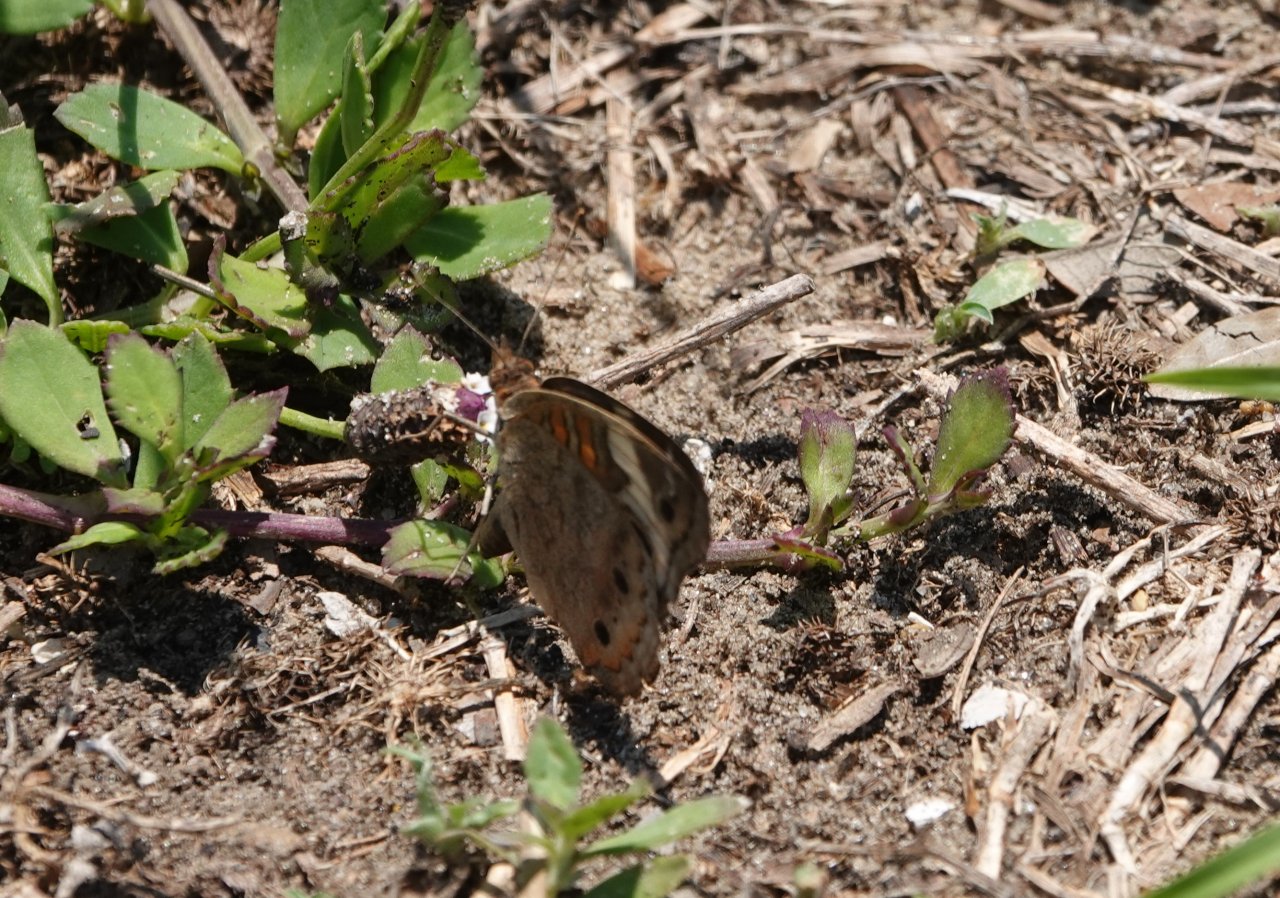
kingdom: Animalia
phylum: Arthropoda
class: Insecta
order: Lepidoptera
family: Nymphalidae
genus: Junonia
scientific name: Junonia coenia
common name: Common Buckeye
